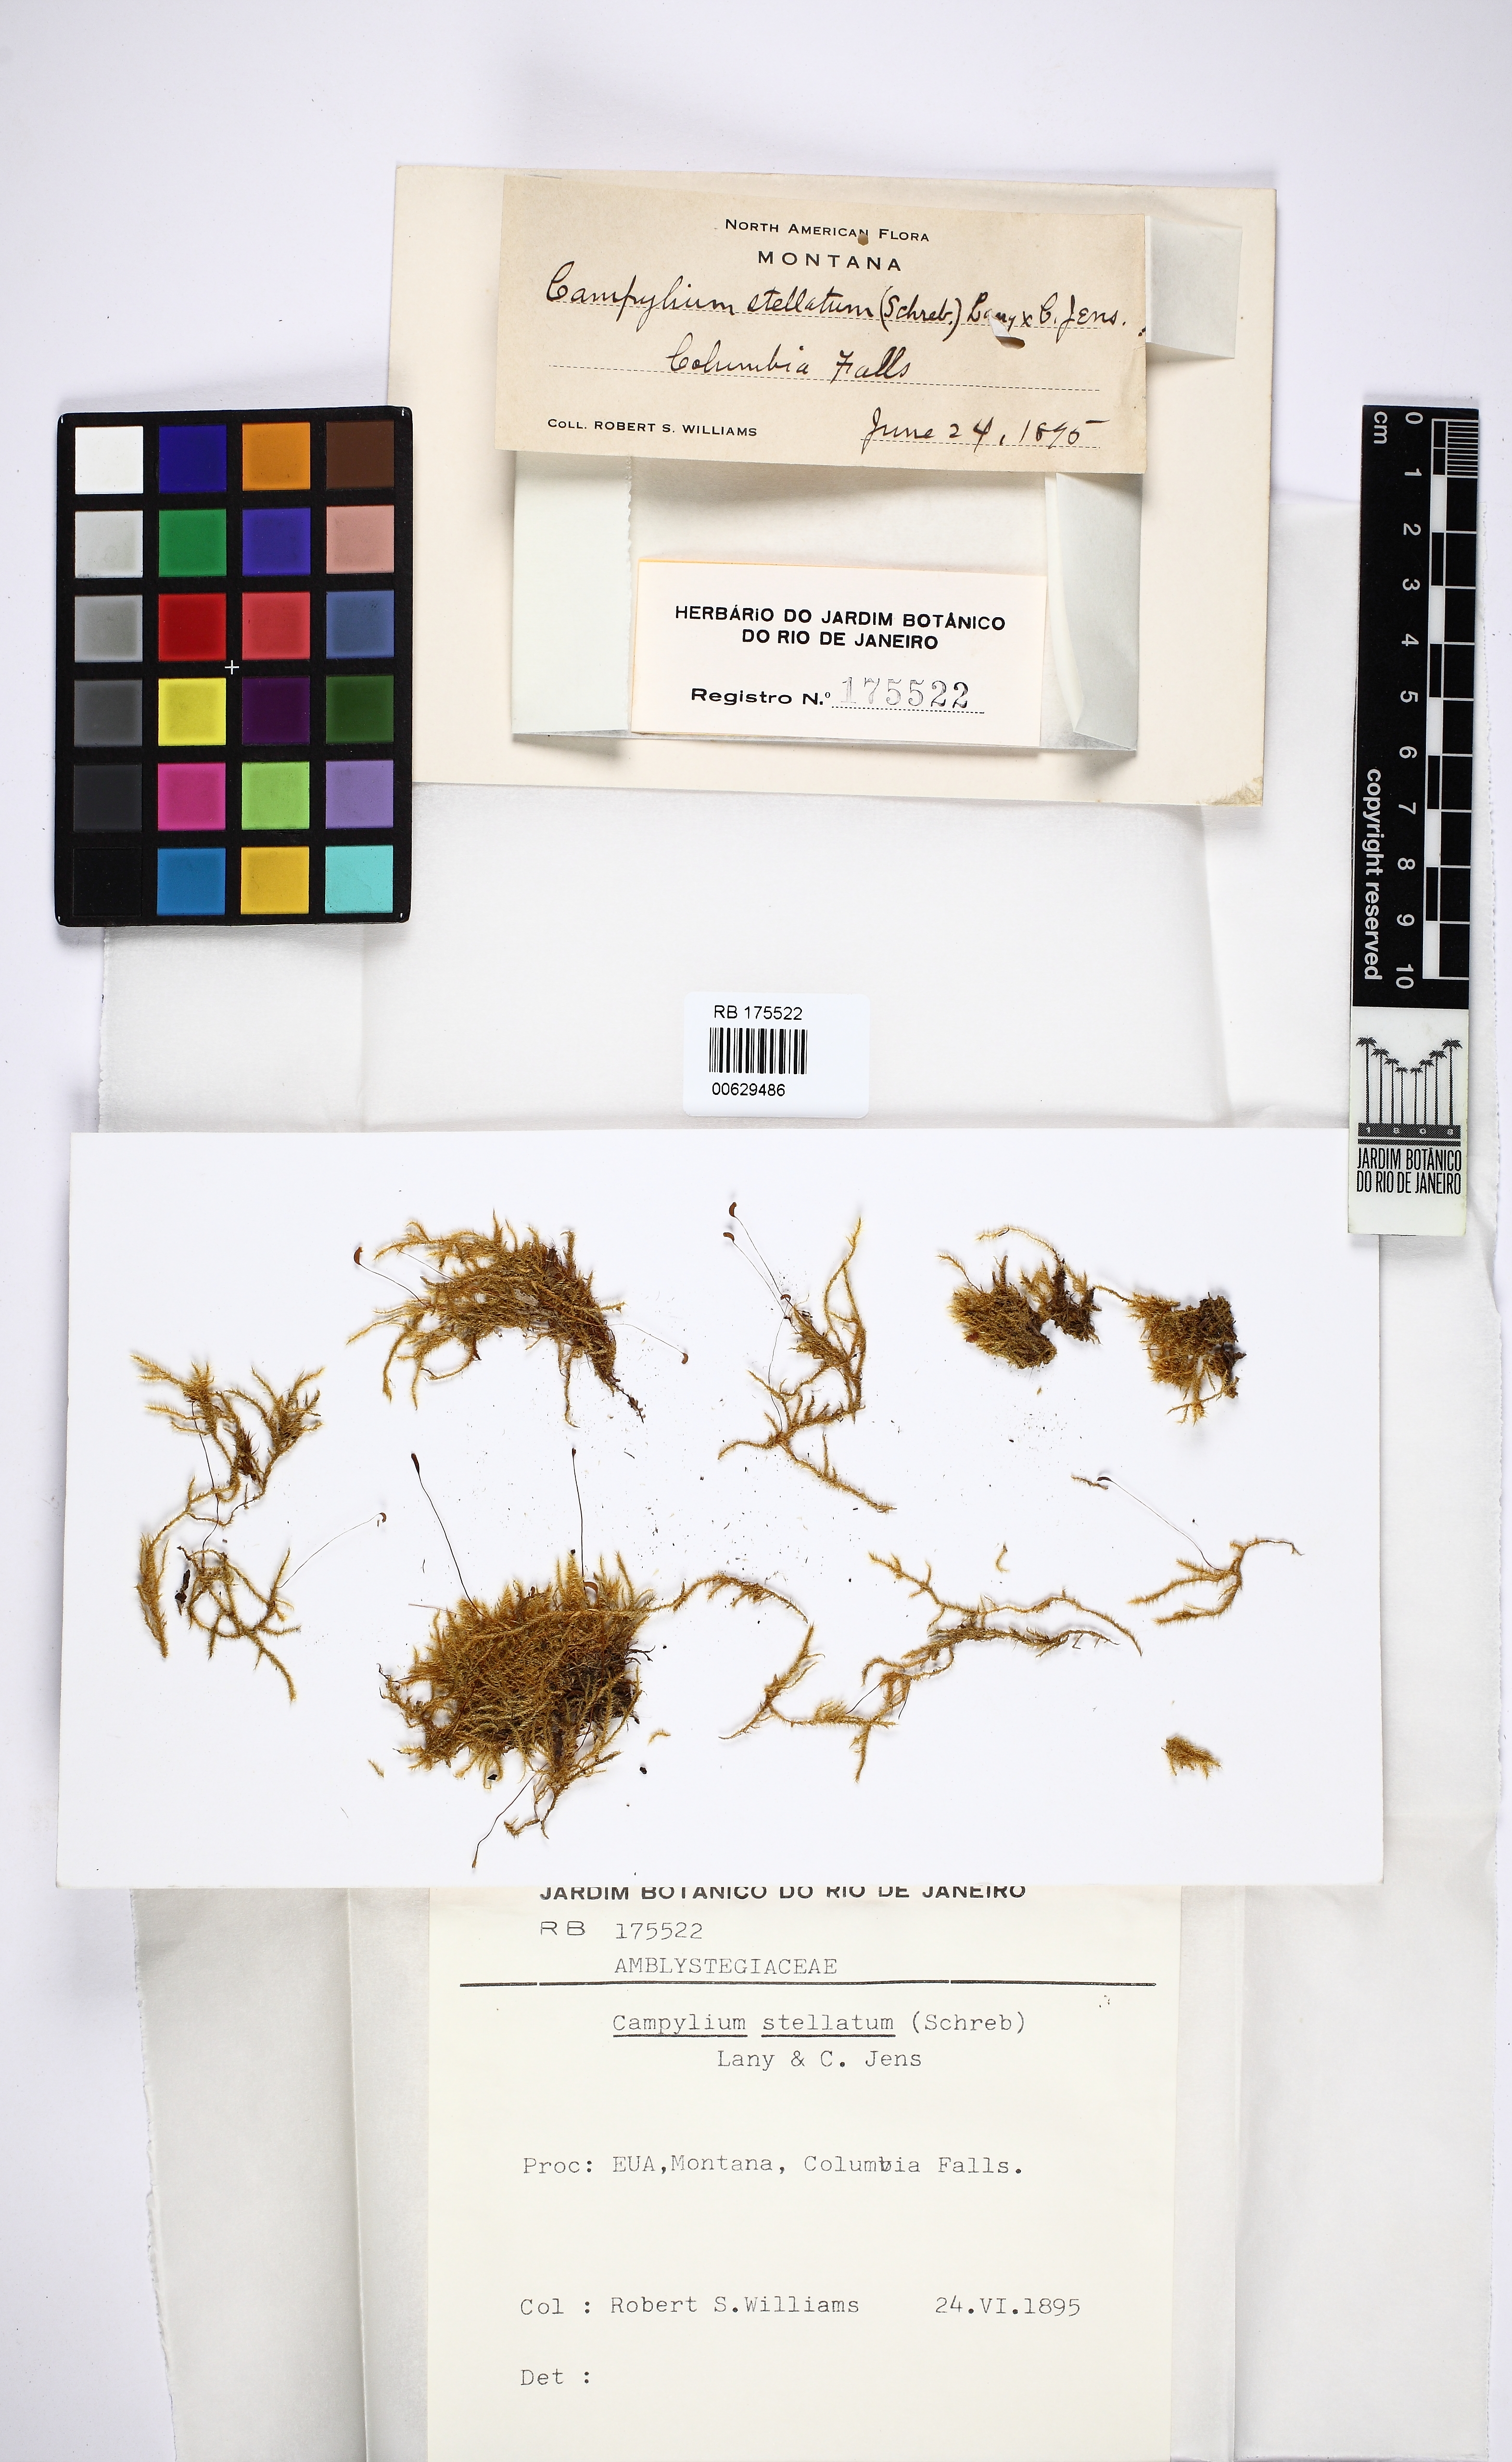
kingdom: Plantae
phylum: Bryophyta
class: Bryopsida
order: Hypnales
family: Amblystegiaceae
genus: Campylium
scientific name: Campylium stellatum
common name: Yellow starry fen moss
